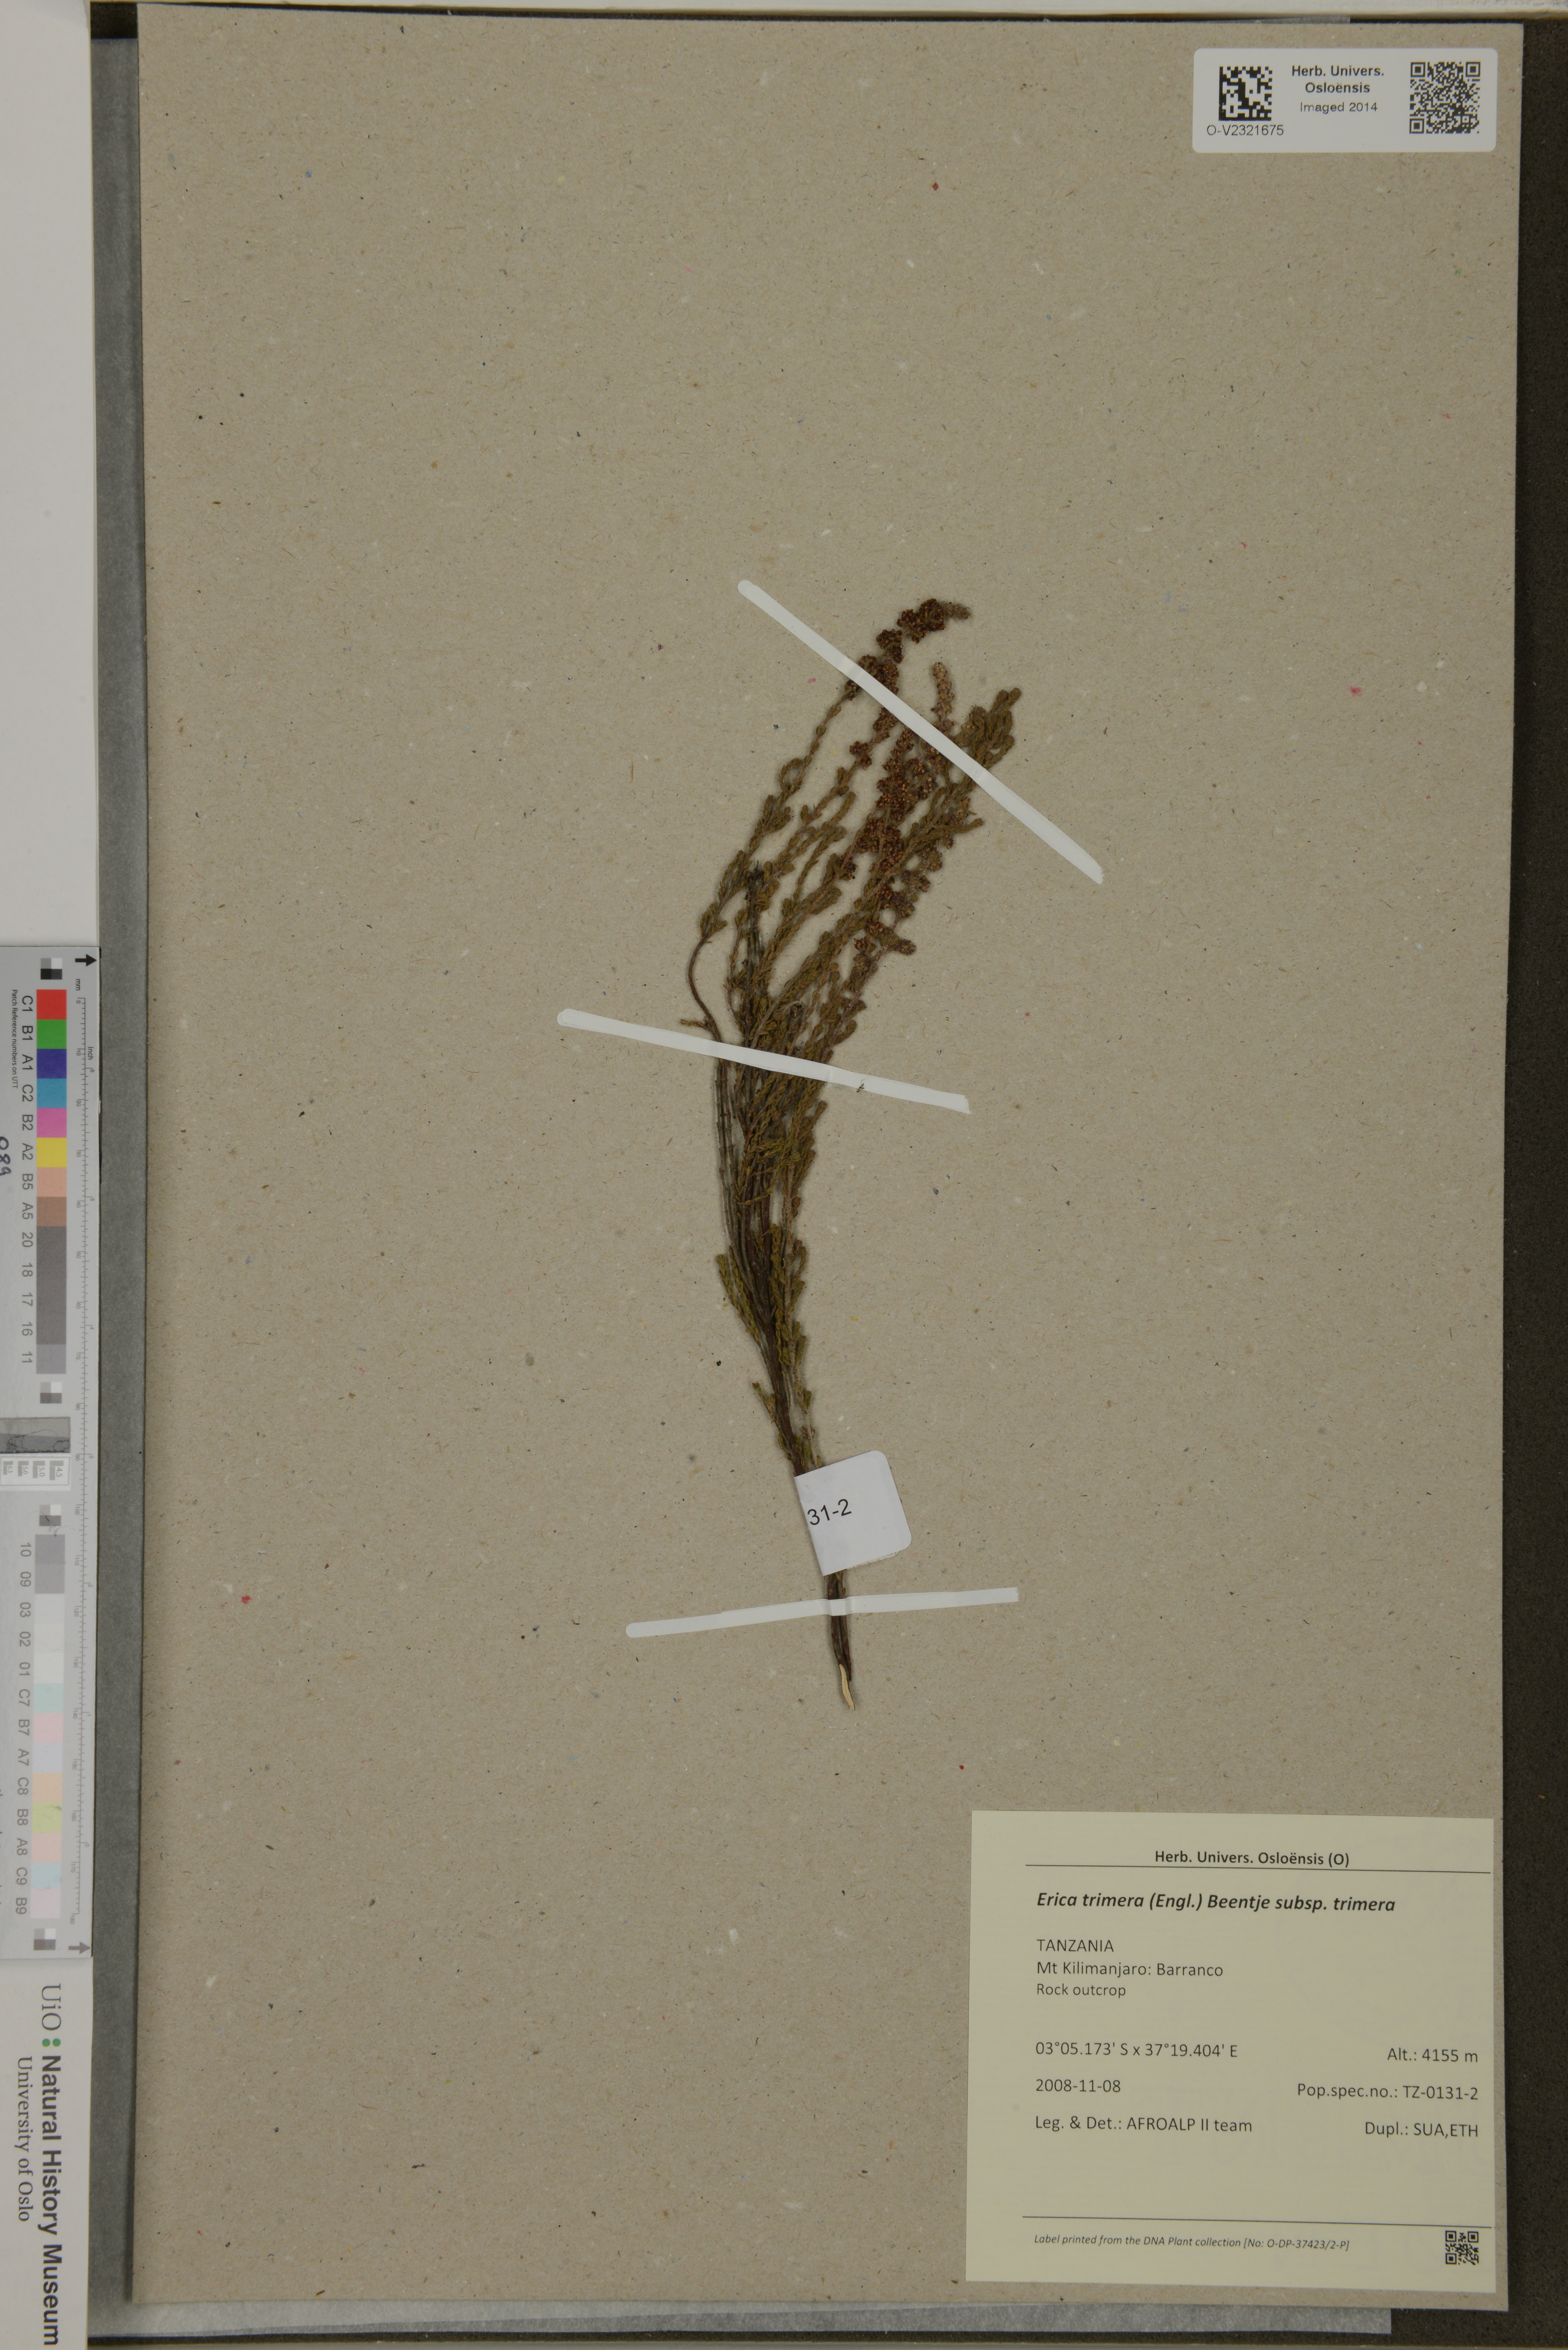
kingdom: Plantae
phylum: Tracheophyta
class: Magnoliopsida
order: Ericales
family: Ericaceae
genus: Erica
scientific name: Erica trimera
